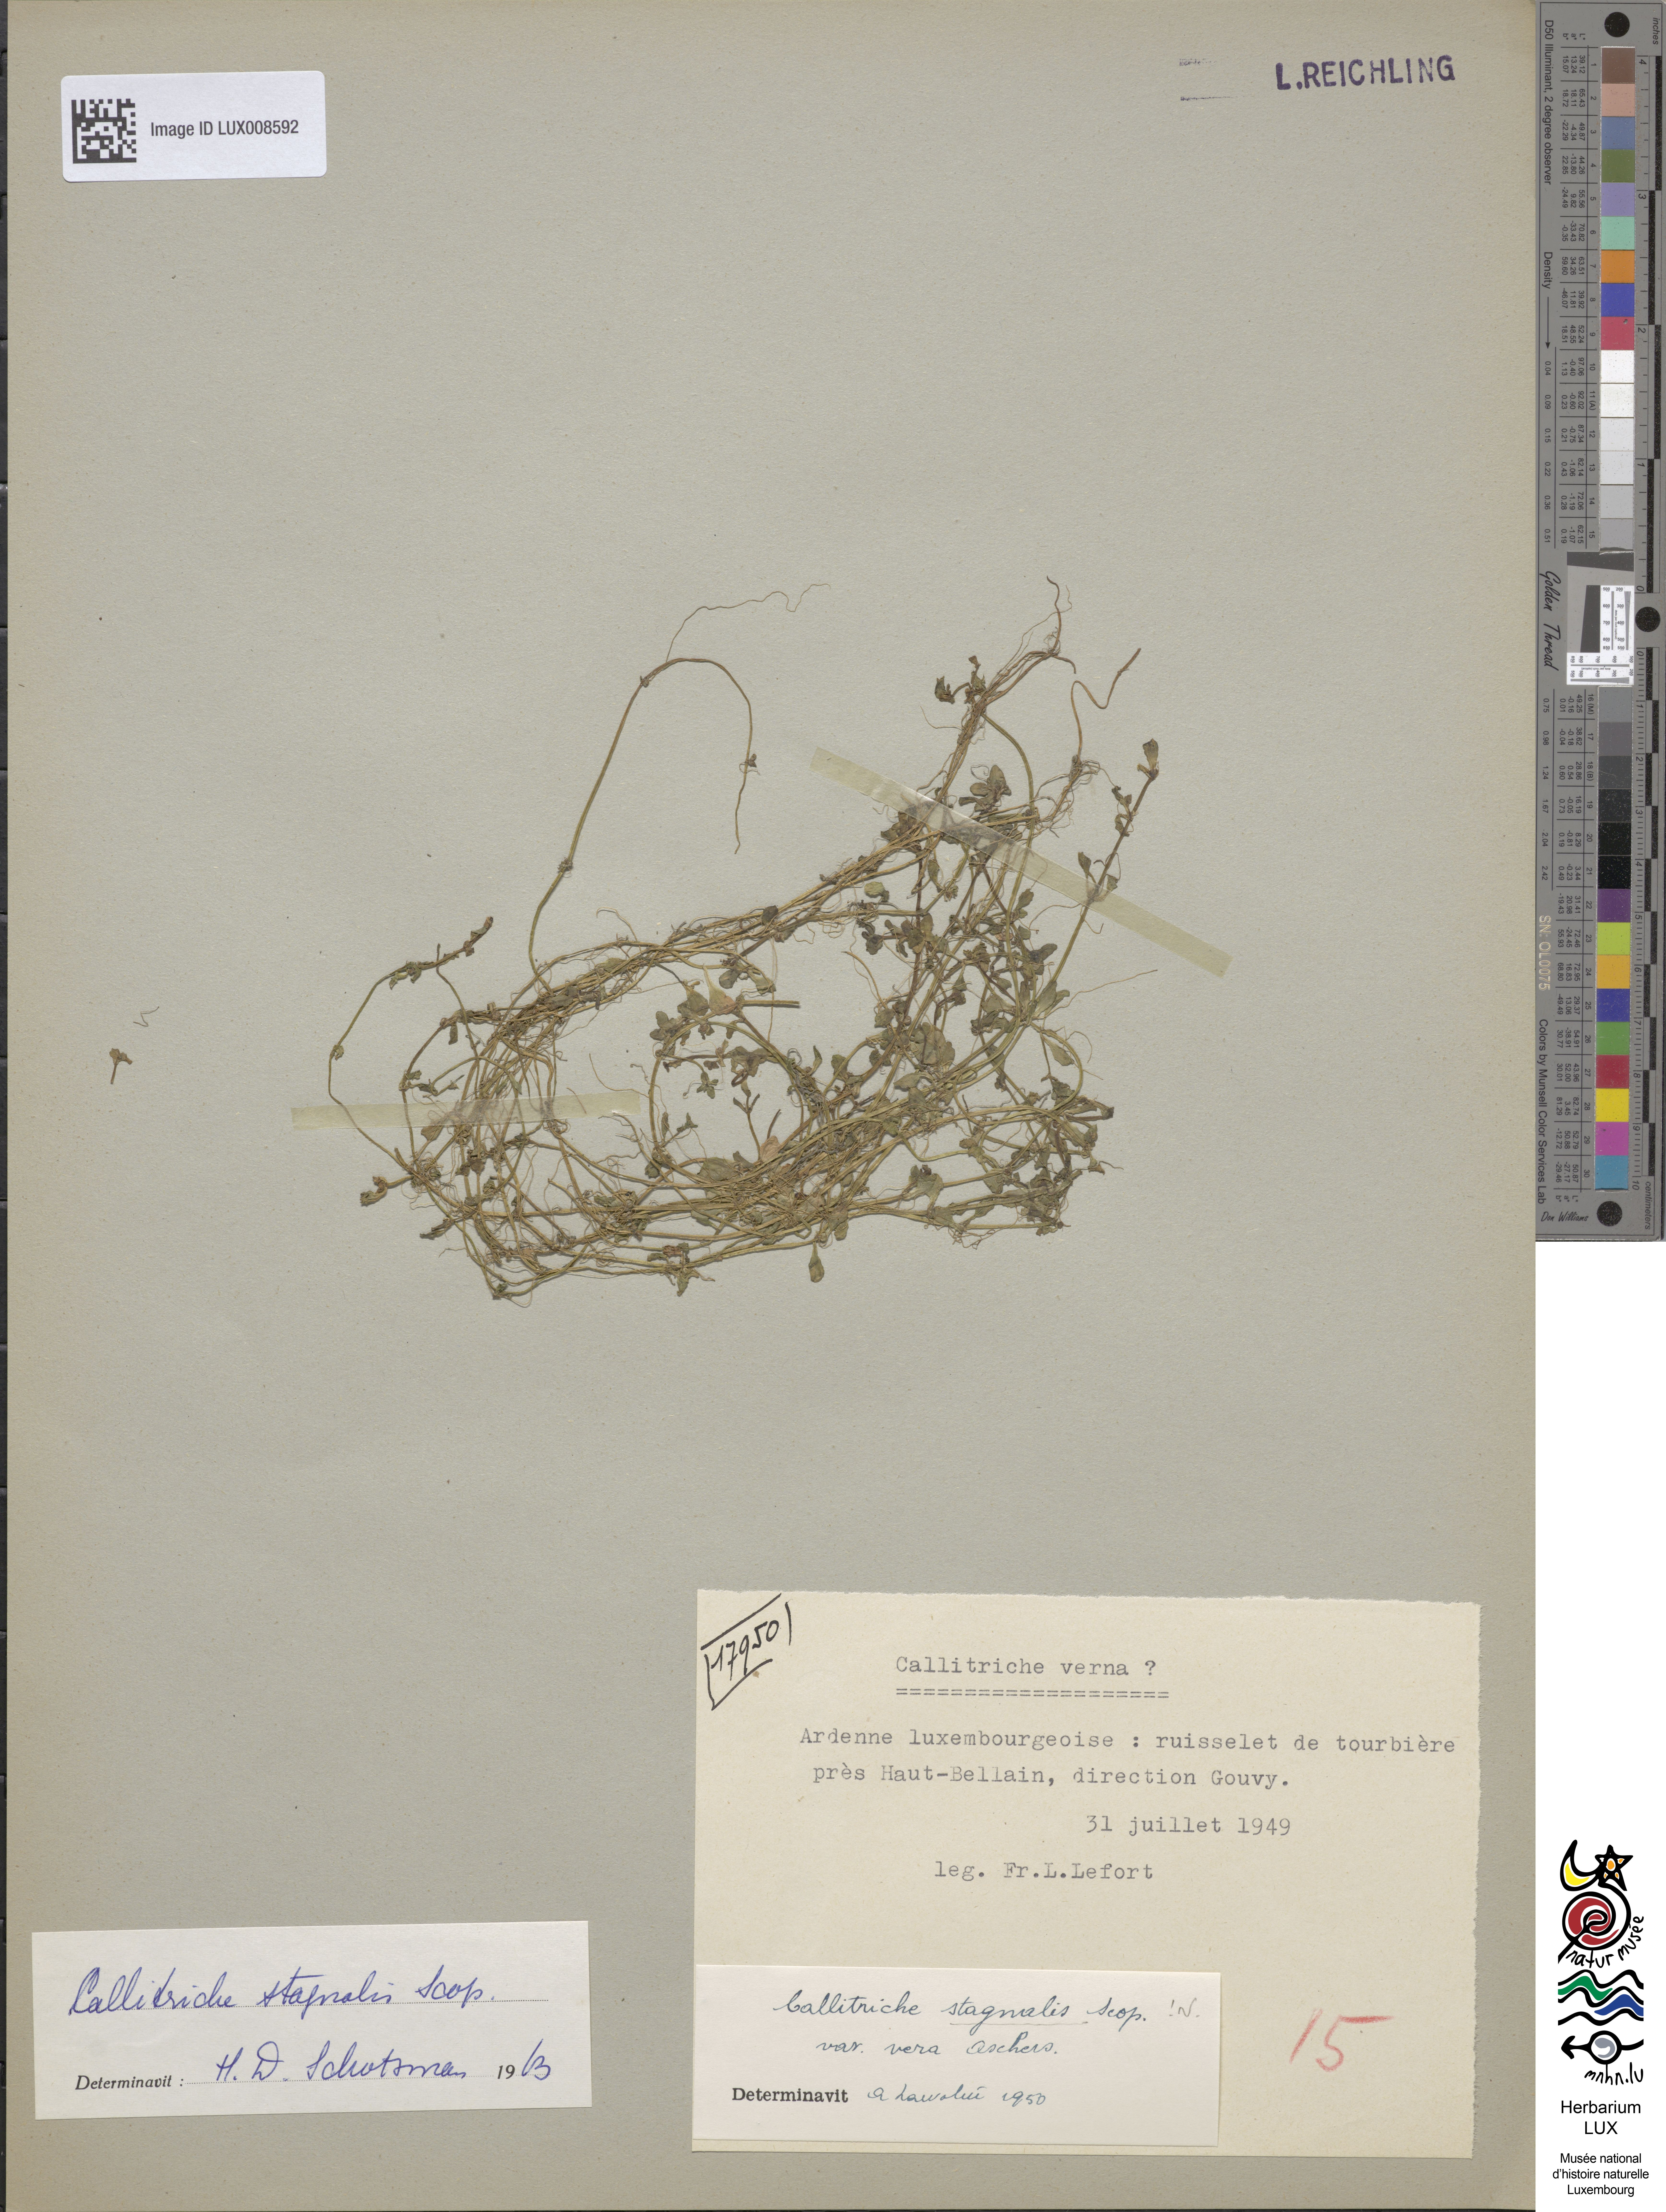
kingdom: Plantae
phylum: Tracheophyta
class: Magnoliopsida
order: Lamiales
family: Plantaginaceae
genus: Callitriche
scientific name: Callitriche stagnalis
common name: Common water-starwort
